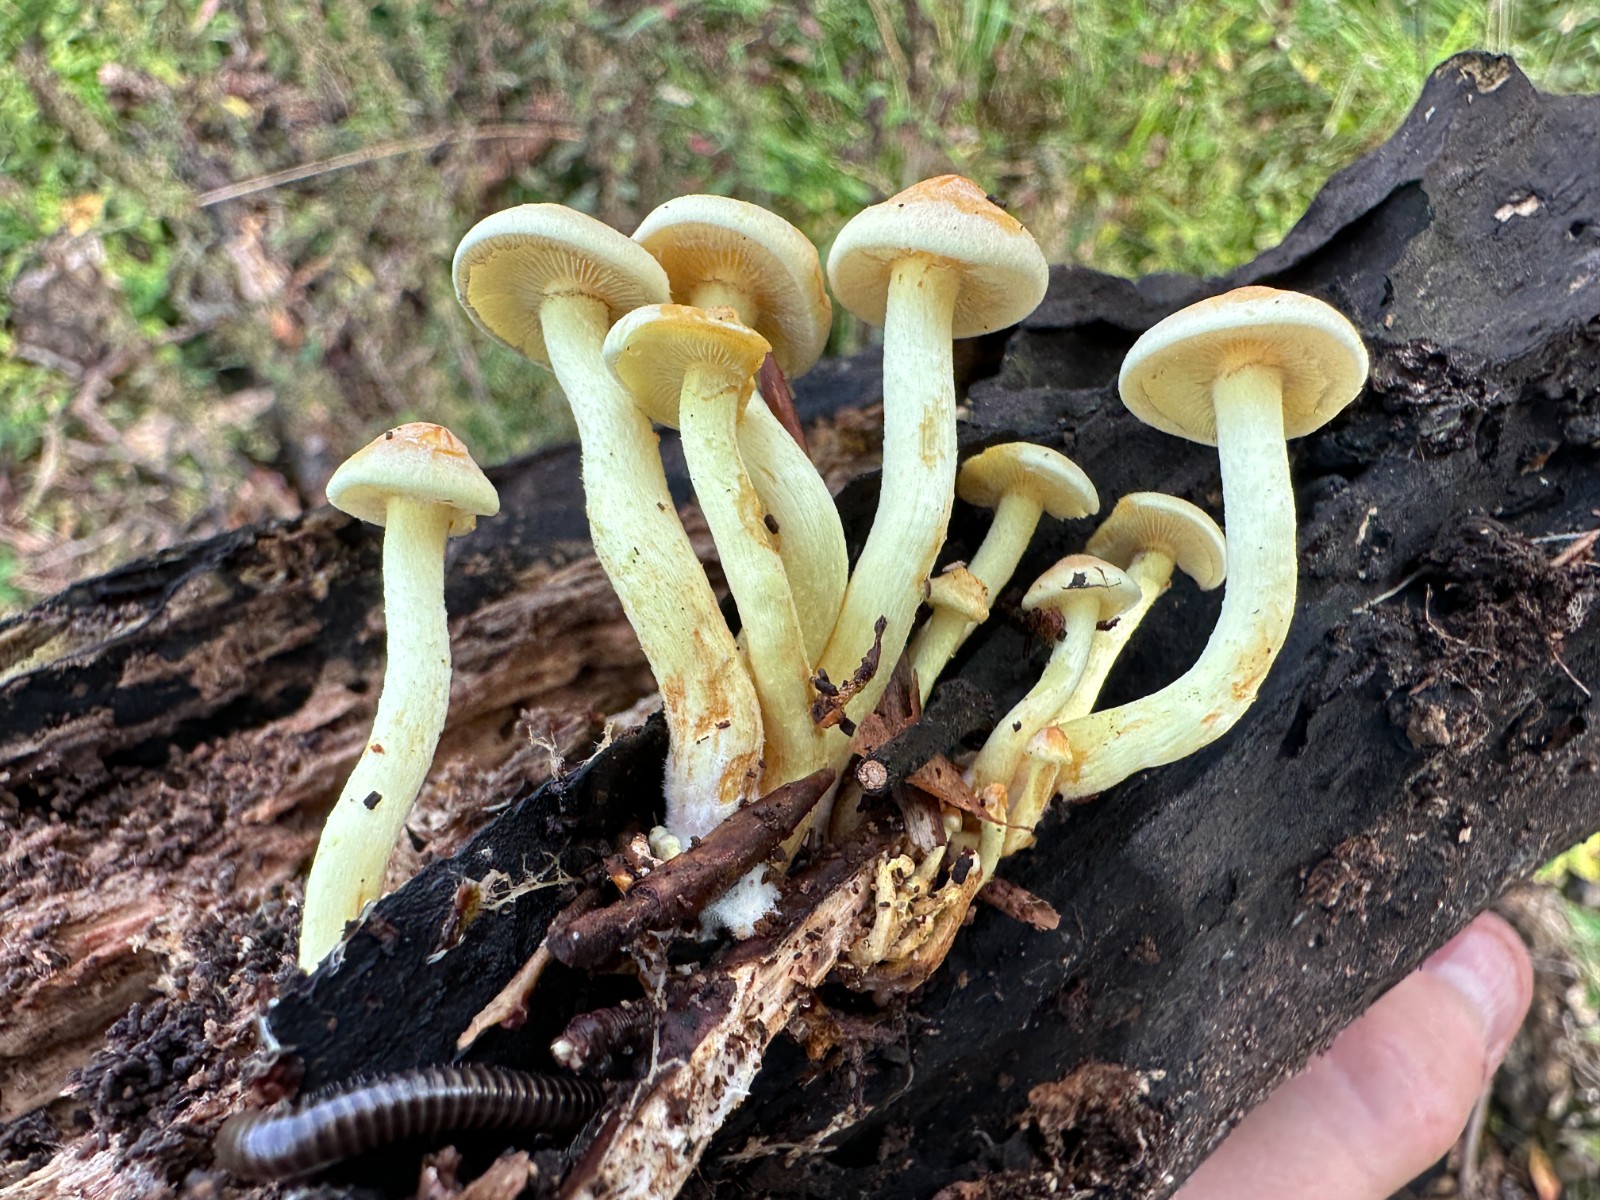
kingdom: Fungi
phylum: Basidiomycota
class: Agaricomycetes
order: Agaricales
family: Strophariaceae
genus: Hypholoma
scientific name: Hypholoma fasciculare
